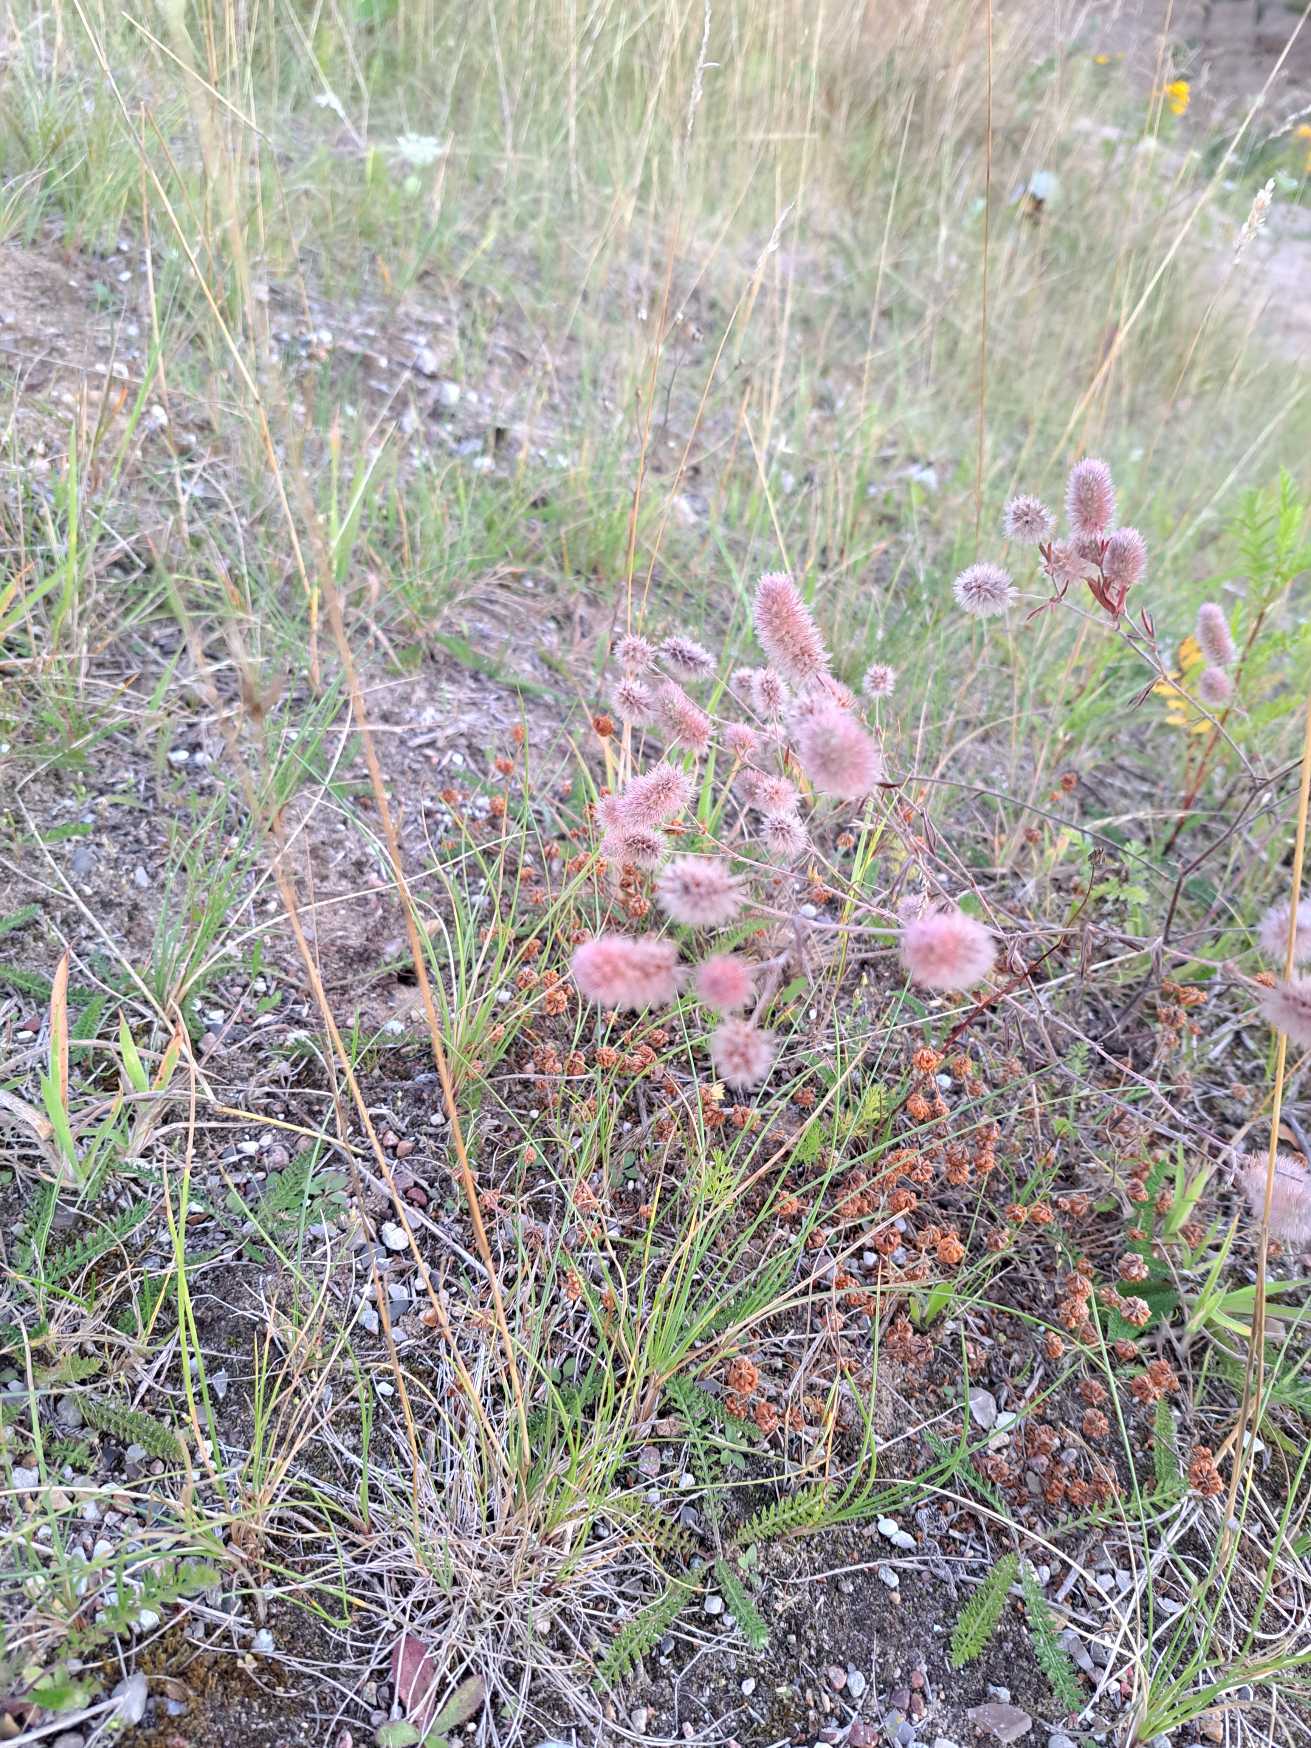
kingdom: Plantae
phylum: Tracheophyta
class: Magnoliopsida
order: Fabales
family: Fabaceae
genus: Trifolium
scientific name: Trifolium arvense
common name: Hare-kløver
